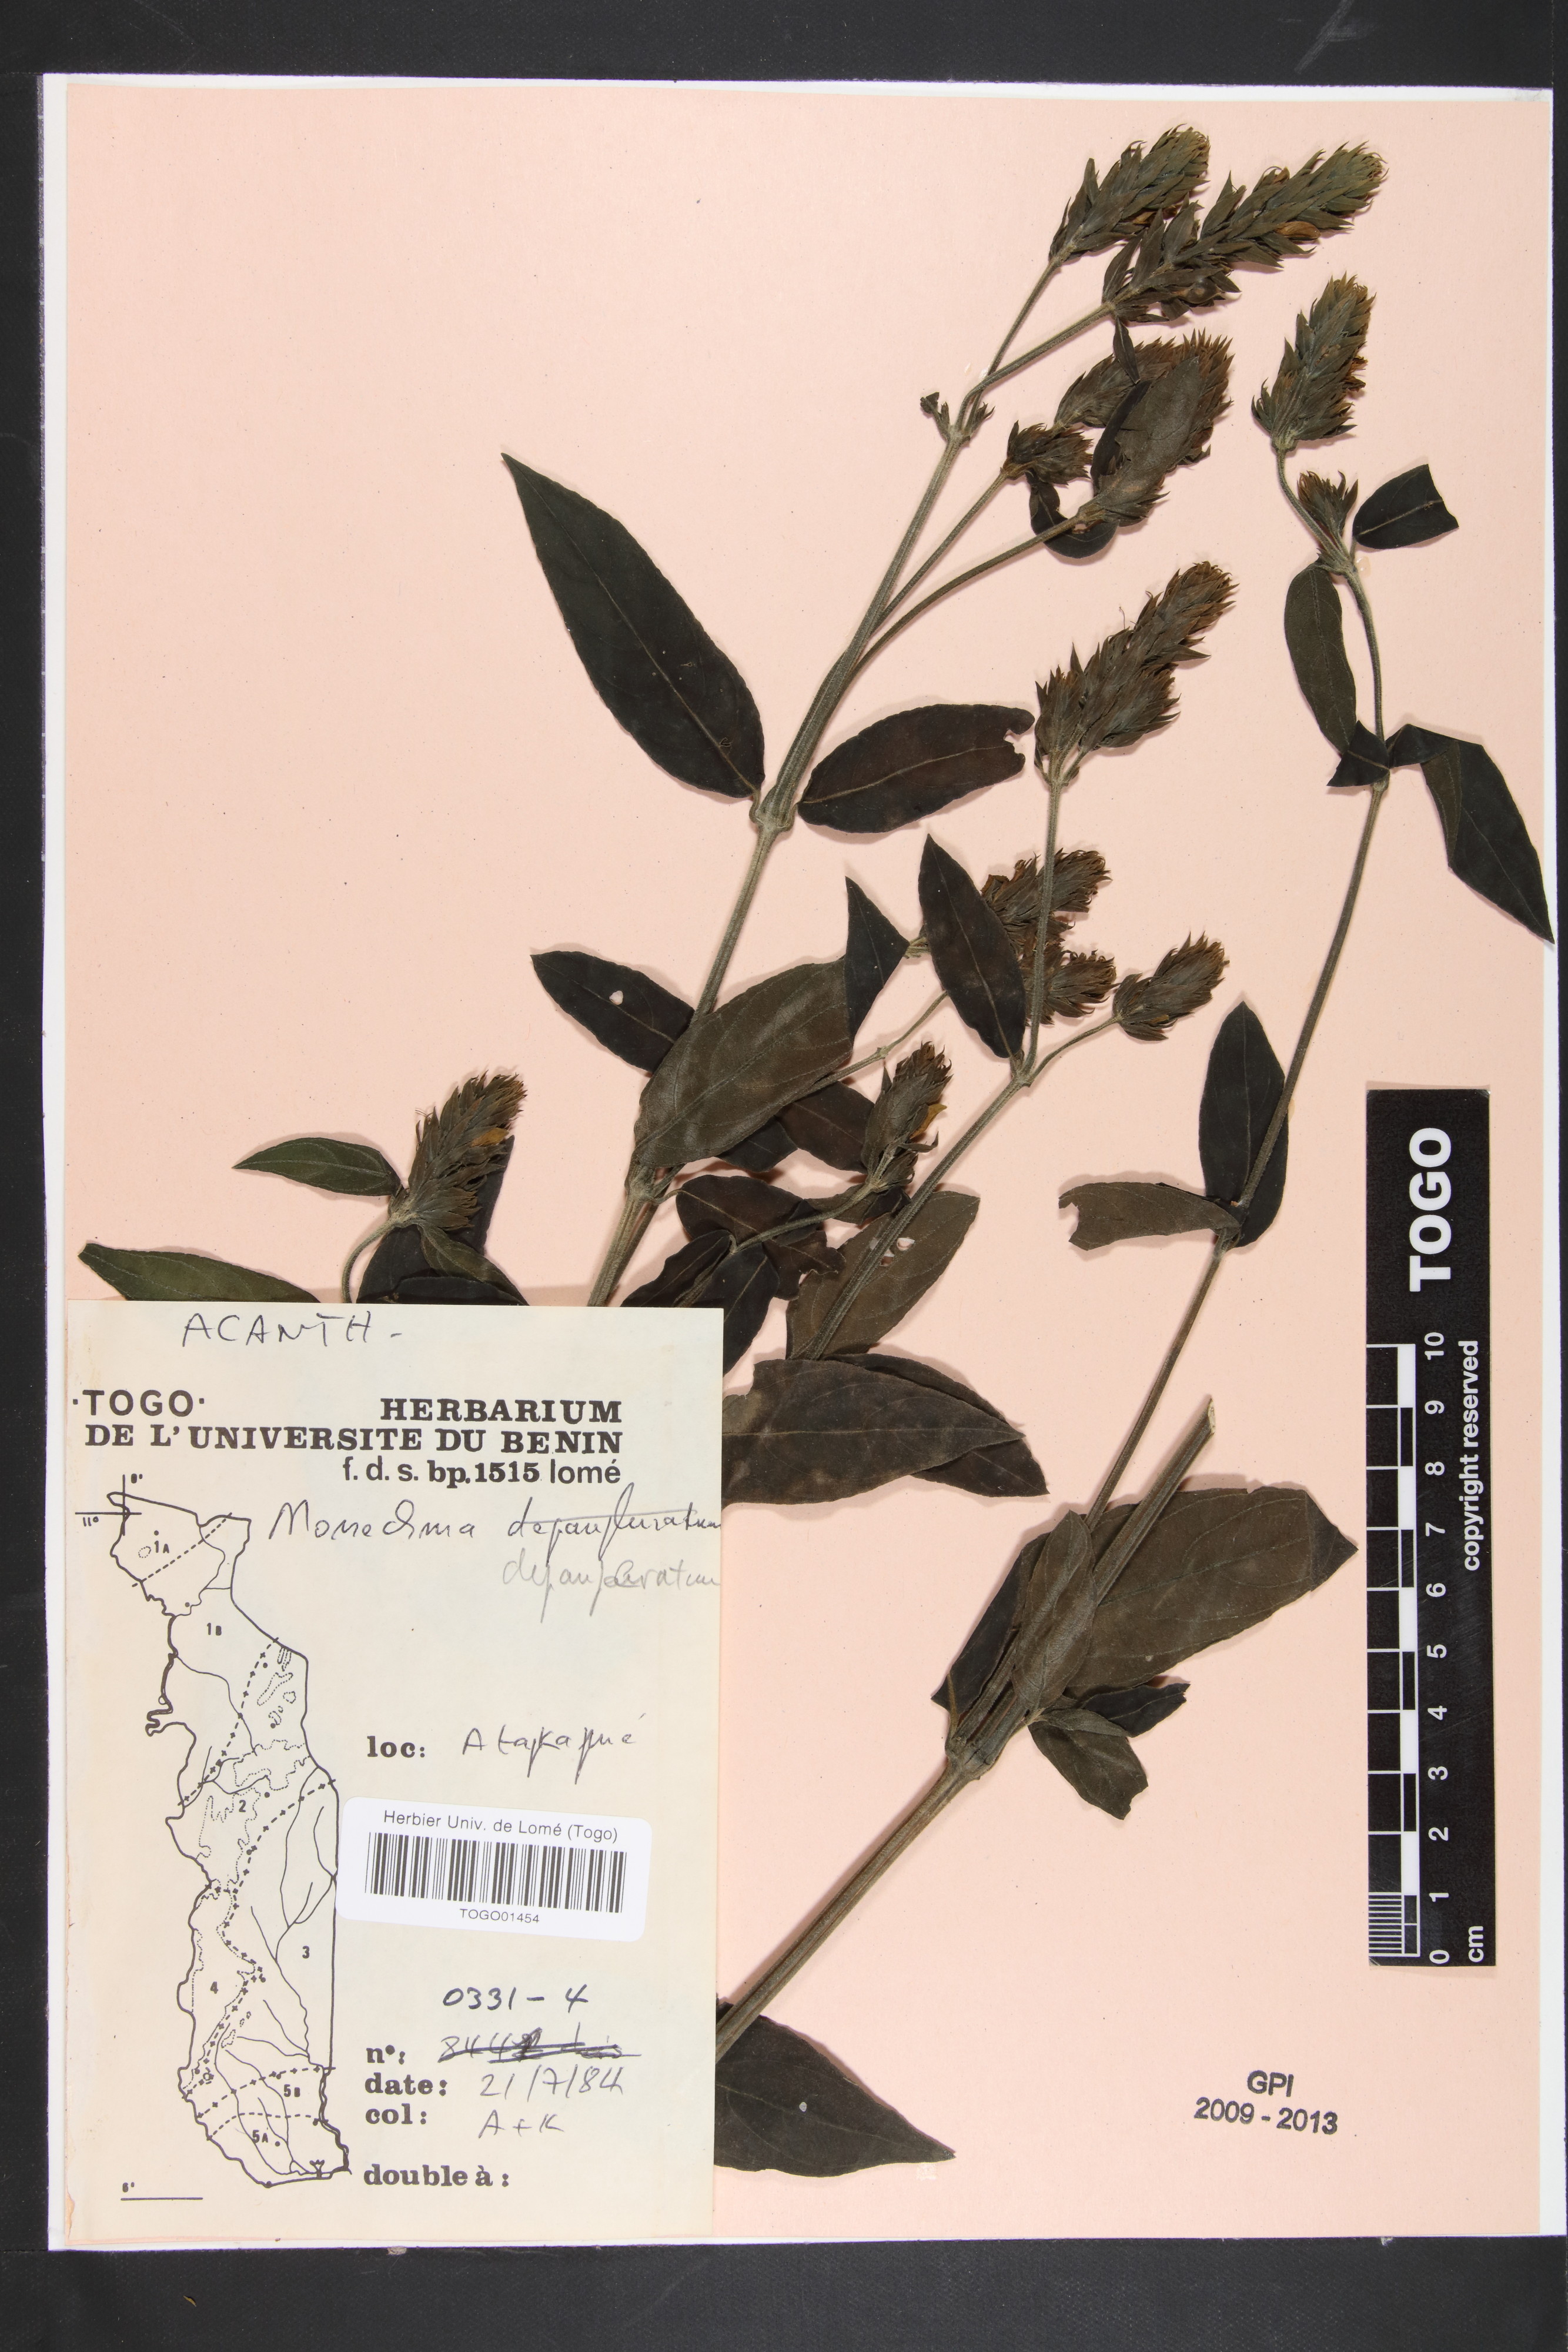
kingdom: Plantae
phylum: Tracheophyta
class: Magnoliopsida
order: Lamiales
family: Acanthaceae
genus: Monechma
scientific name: Monechma depauperatum
